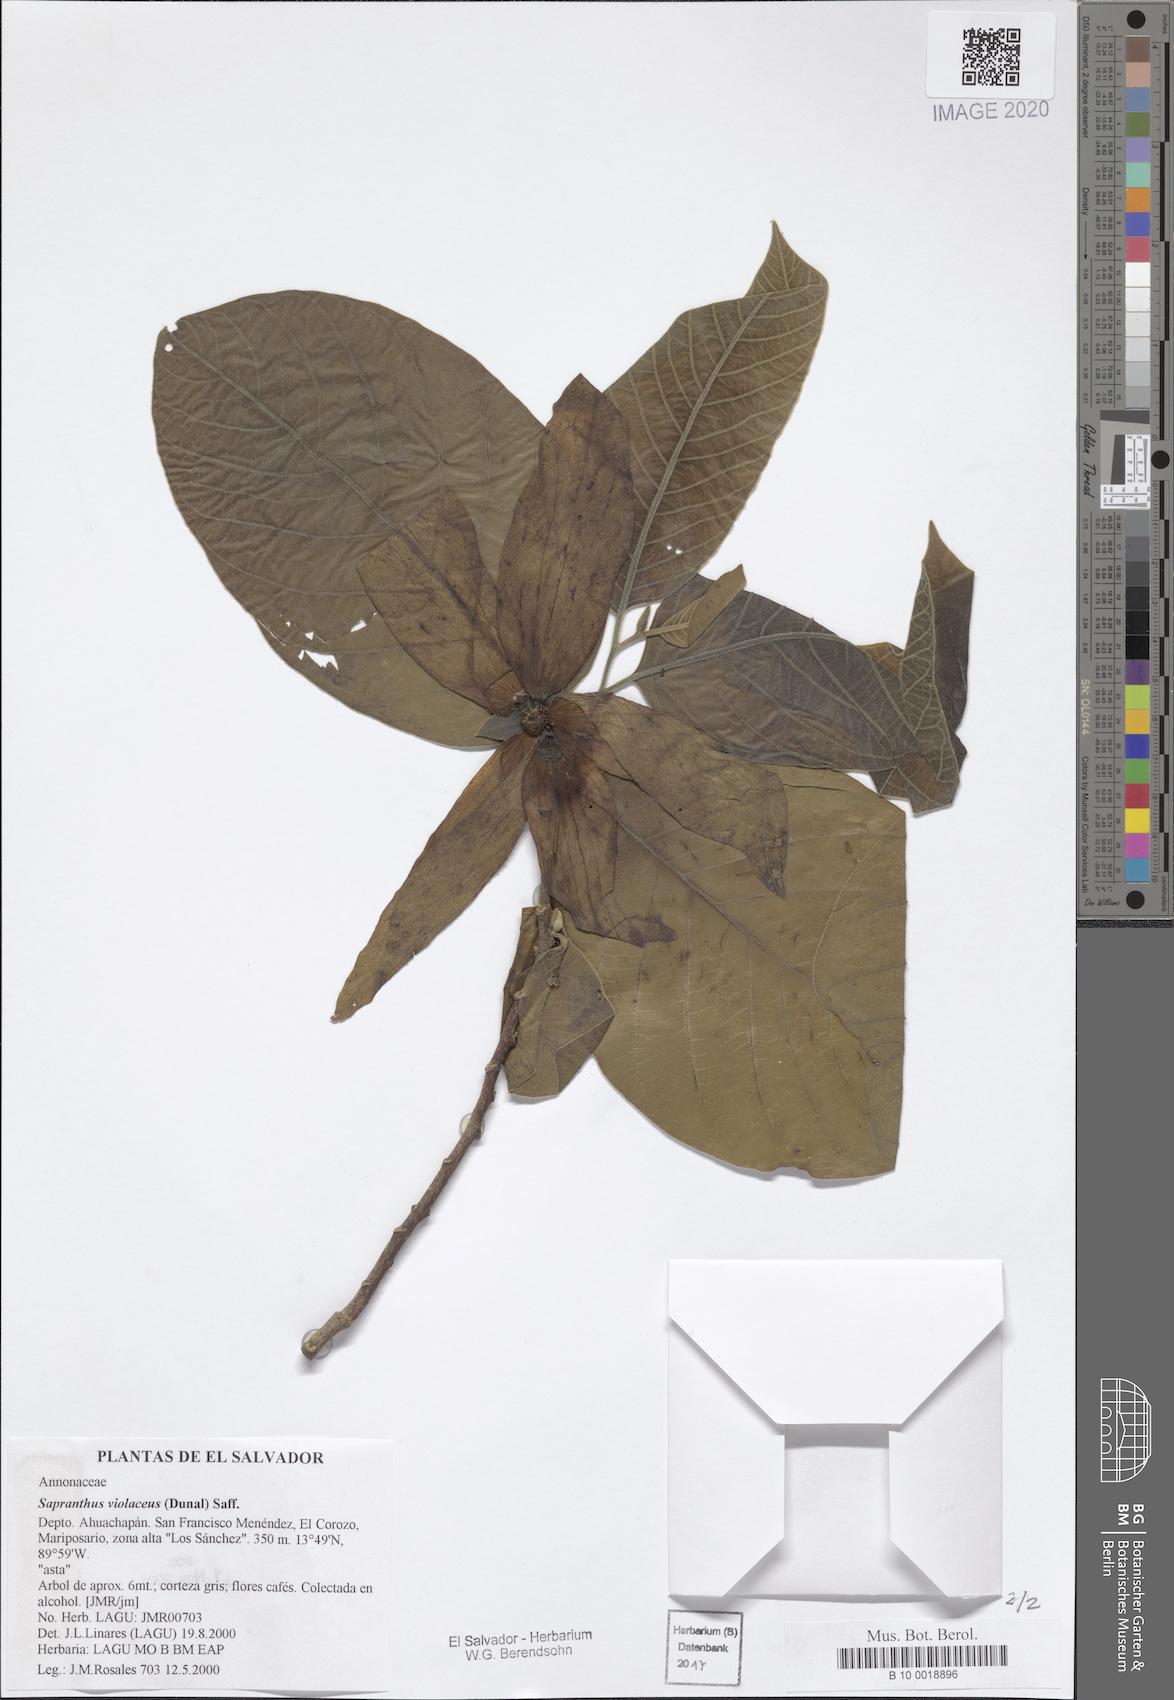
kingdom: Plantae
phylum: Tracheophyta
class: Magnoliopsida
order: Magnoliales
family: Annonaceae
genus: Sapranthus
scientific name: Sapranthus violaceus
